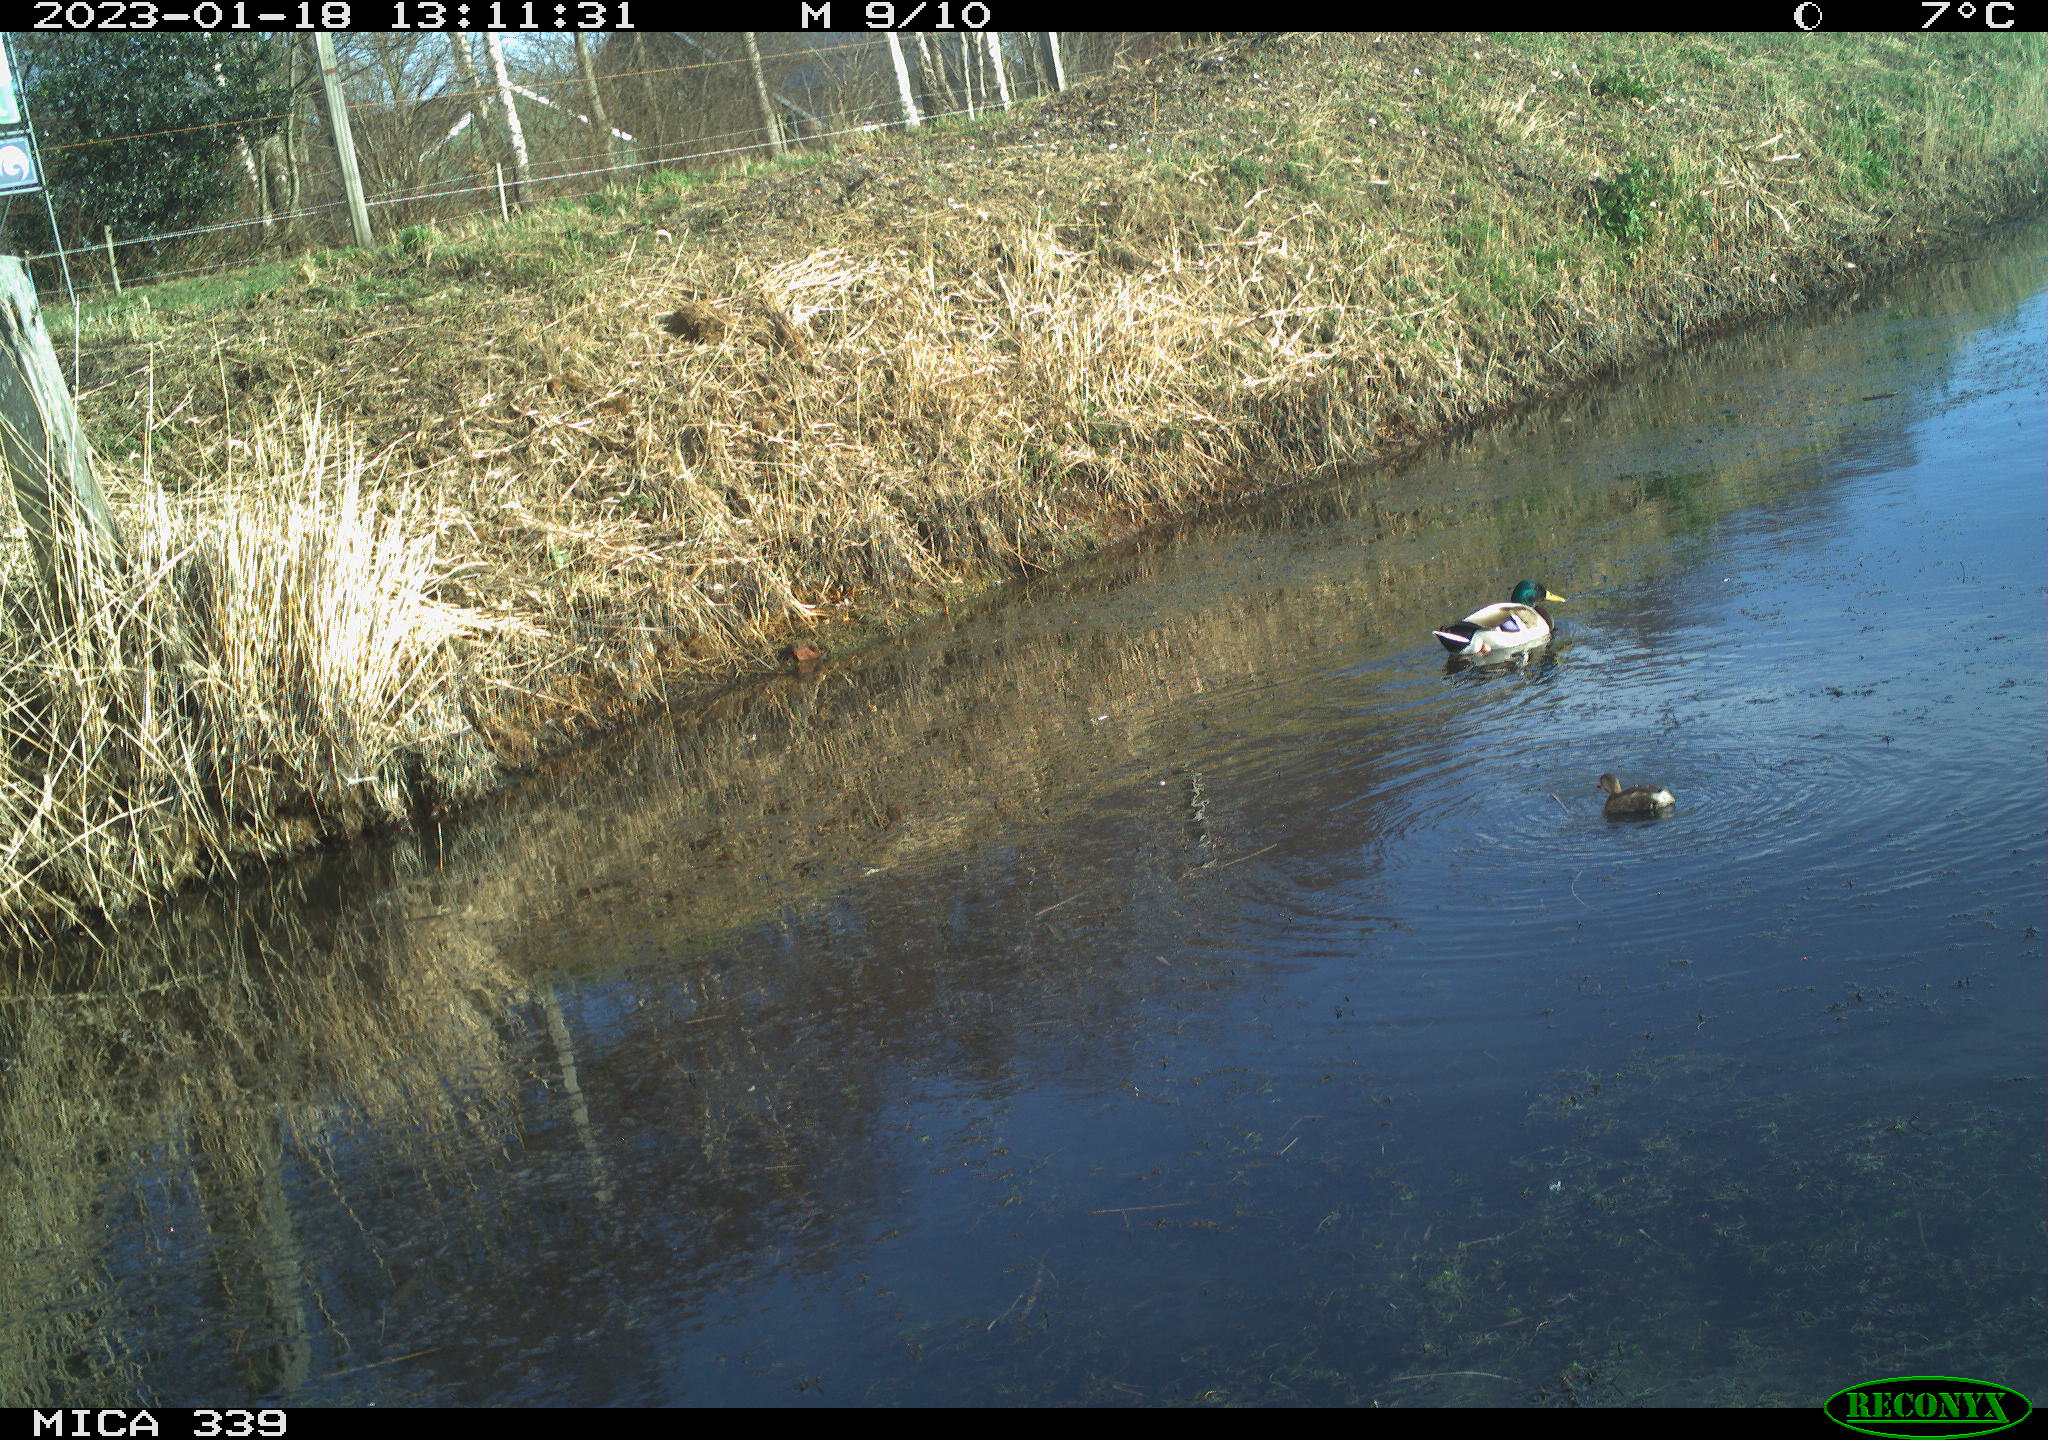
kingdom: Animalia
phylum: Chordata
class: Aves
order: Anseriformes
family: Anatidae
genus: Anas
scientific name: Anas
